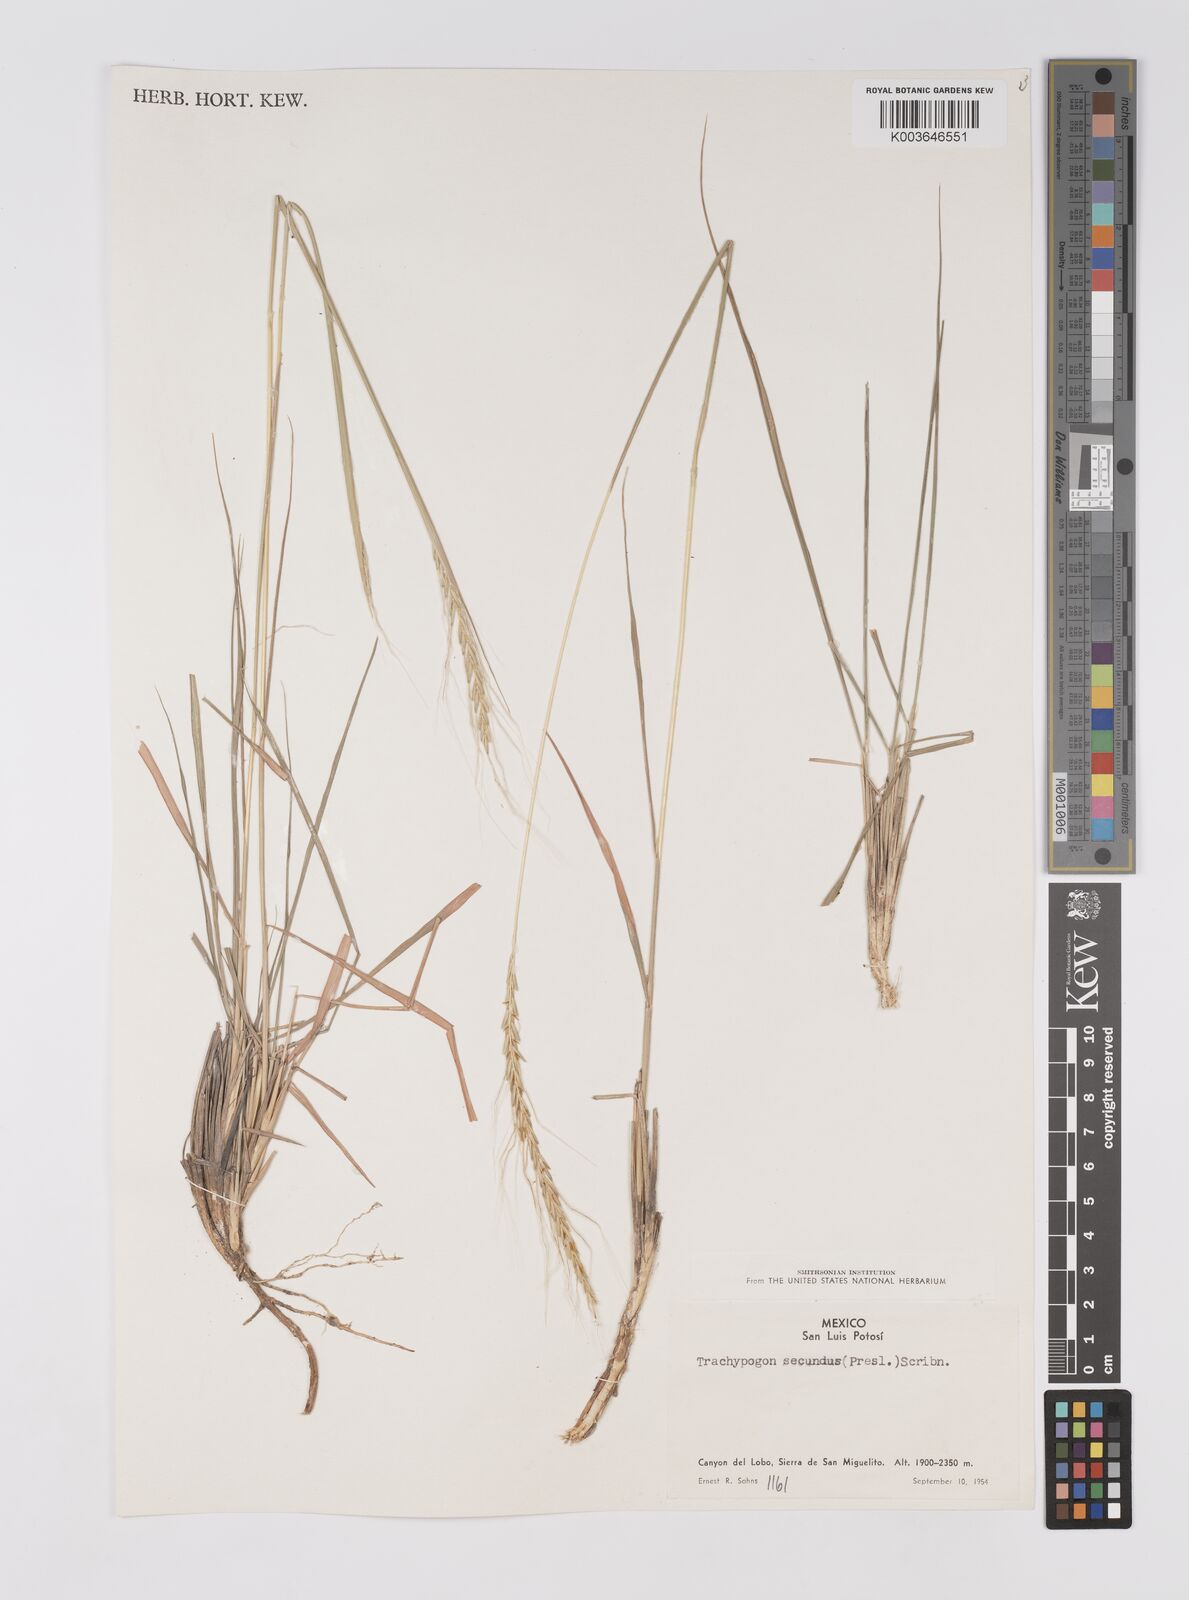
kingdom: Plantae
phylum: Tracheophyta
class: Liliopsida
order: Poales
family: Poaceae
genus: Trachypogon
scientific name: Trachypogon spicatus
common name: Crinkle-awn
